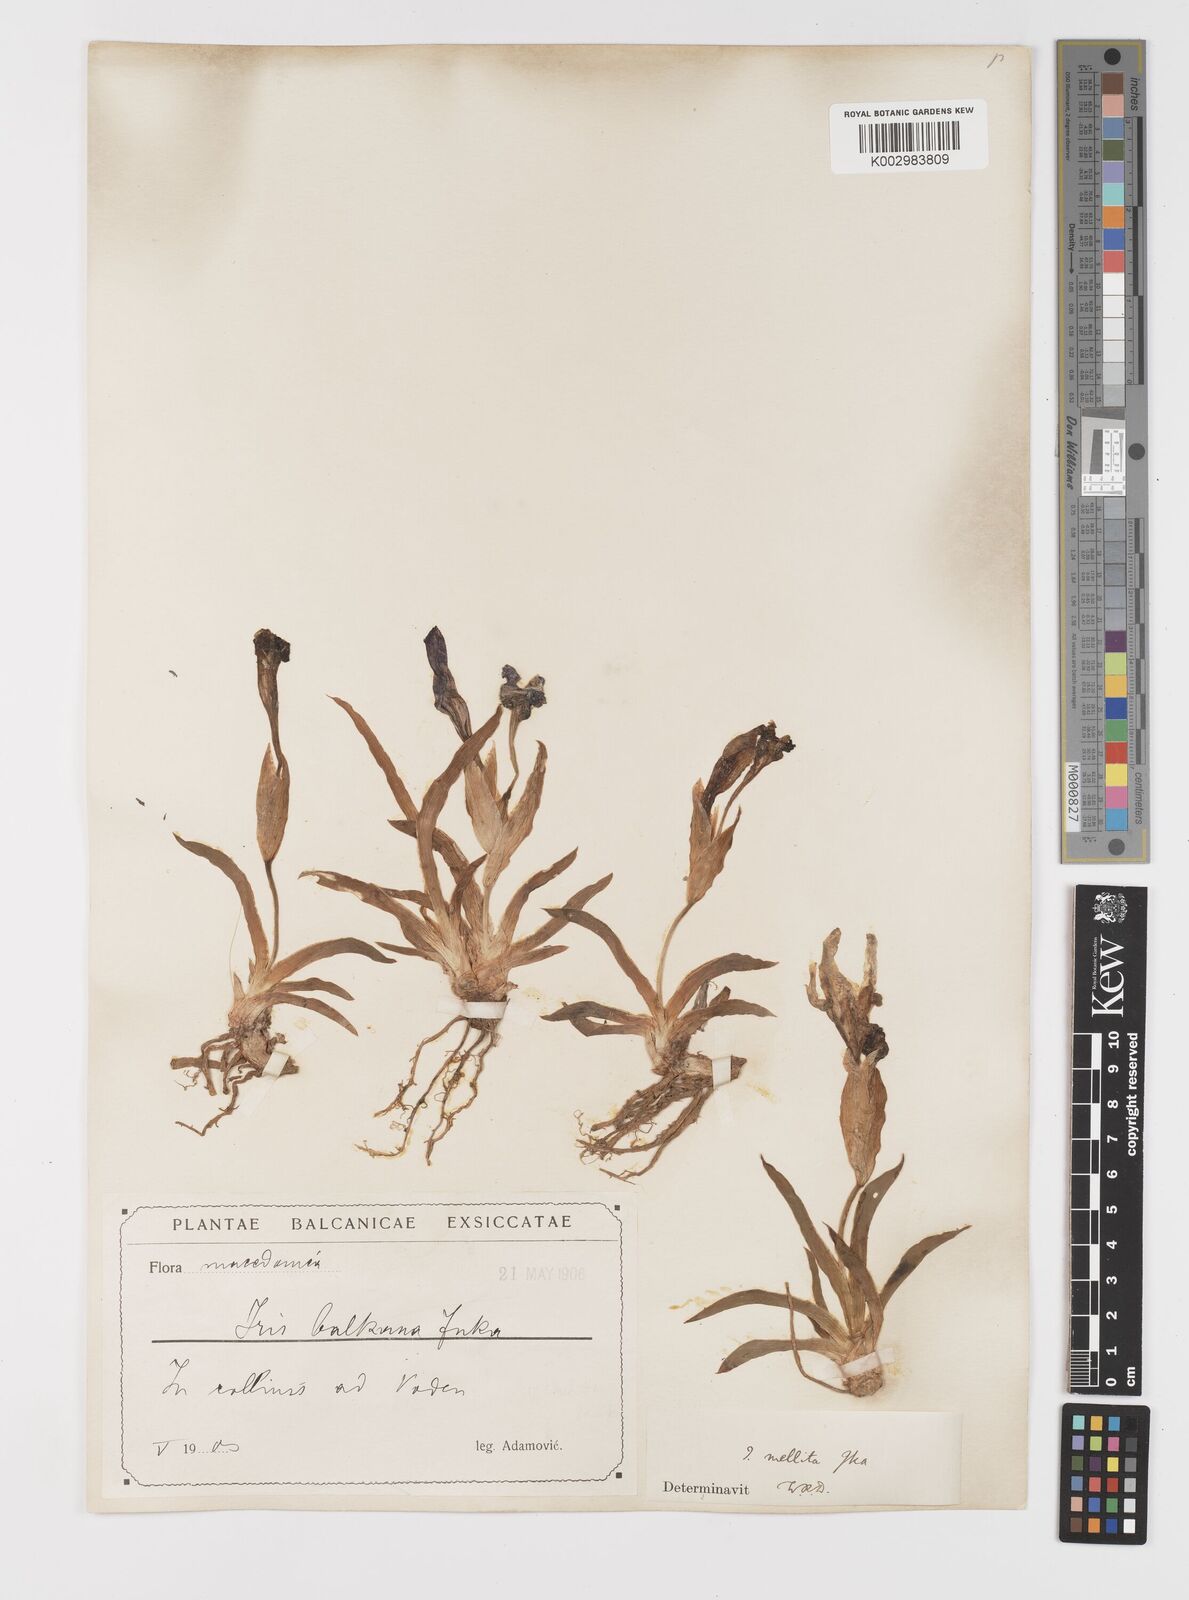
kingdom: Plantae
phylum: Tracheophyta
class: Liliopsida
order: Asparagales
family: Iridaceae
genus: Iris
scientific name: Iris reichenbachii
